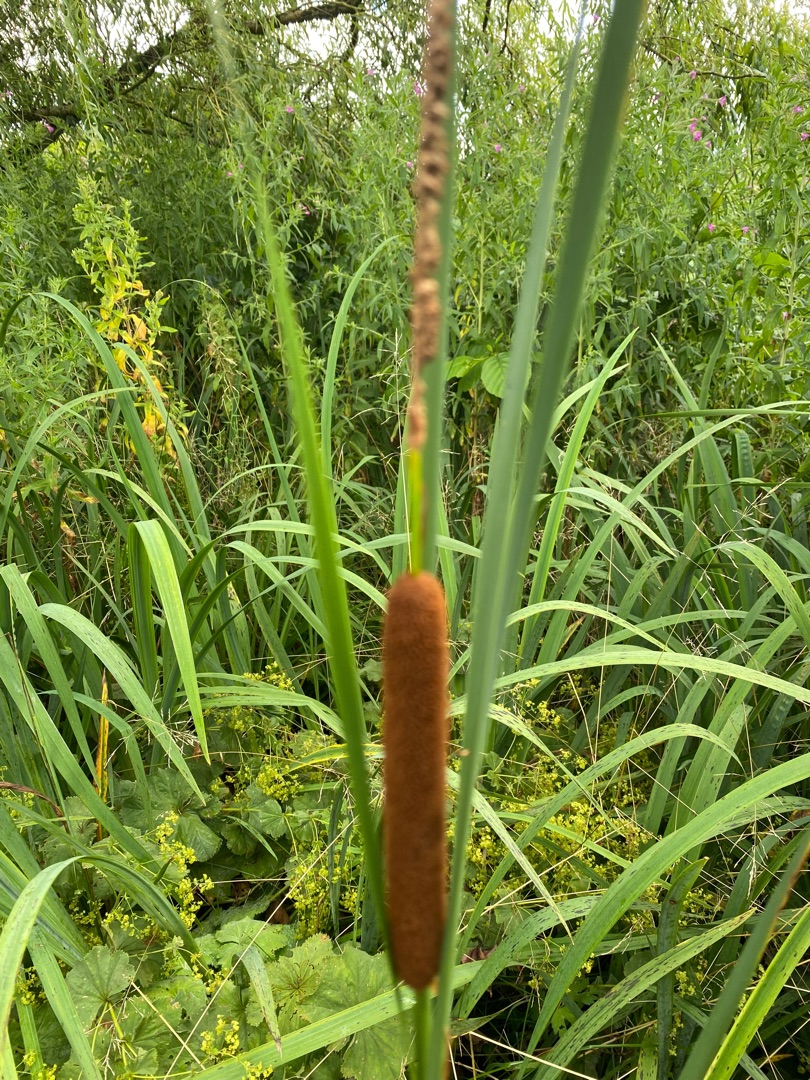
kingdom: Plantae
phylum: Tracheophyta
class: Liliopsida
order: Poales
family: Typhaceae
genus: Typha
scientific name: Typha angustifolia
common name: Smalbladet dunhammer
